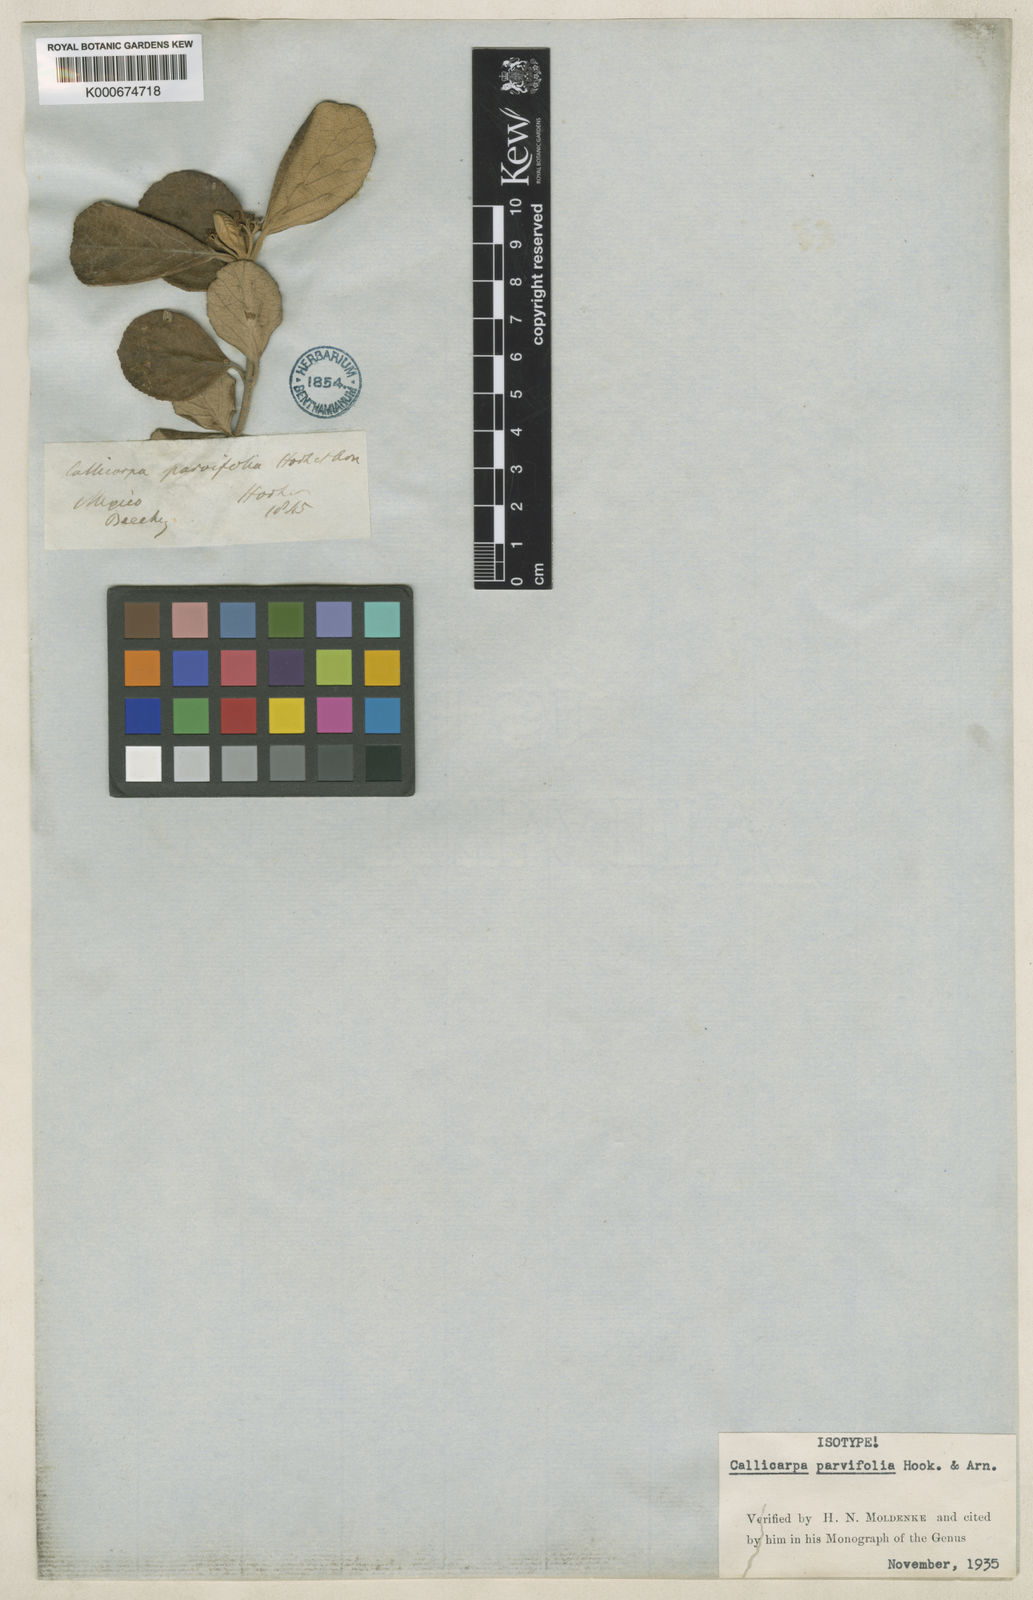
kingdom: Plantae
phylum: Tracheophyta
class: Magnoliopsida
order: Lamiales
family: Lamiaceae
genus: Callicarpa
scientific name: Callicarpa parvifolia
